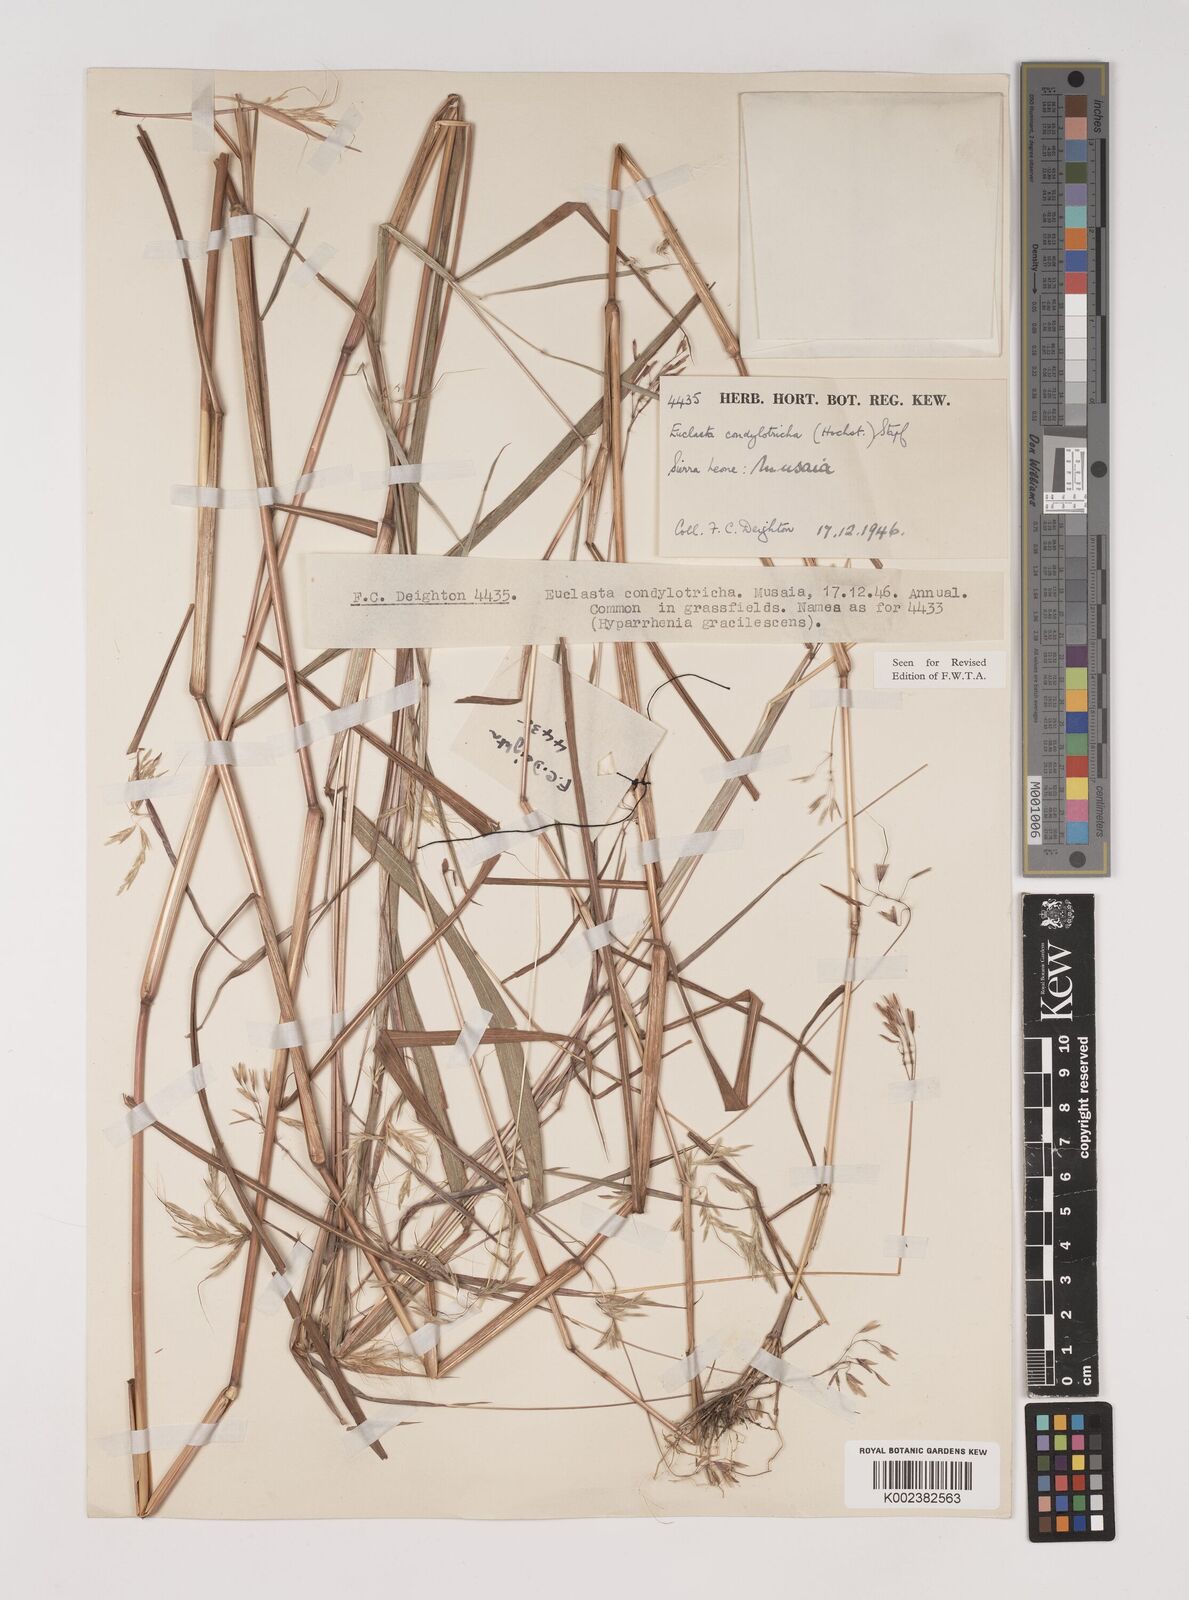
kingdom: Plantae
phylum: Tracheophyta
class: Liliopsida
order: Poales
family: Poaceae
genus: Euclasta
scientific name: Euclasta condylotricha
